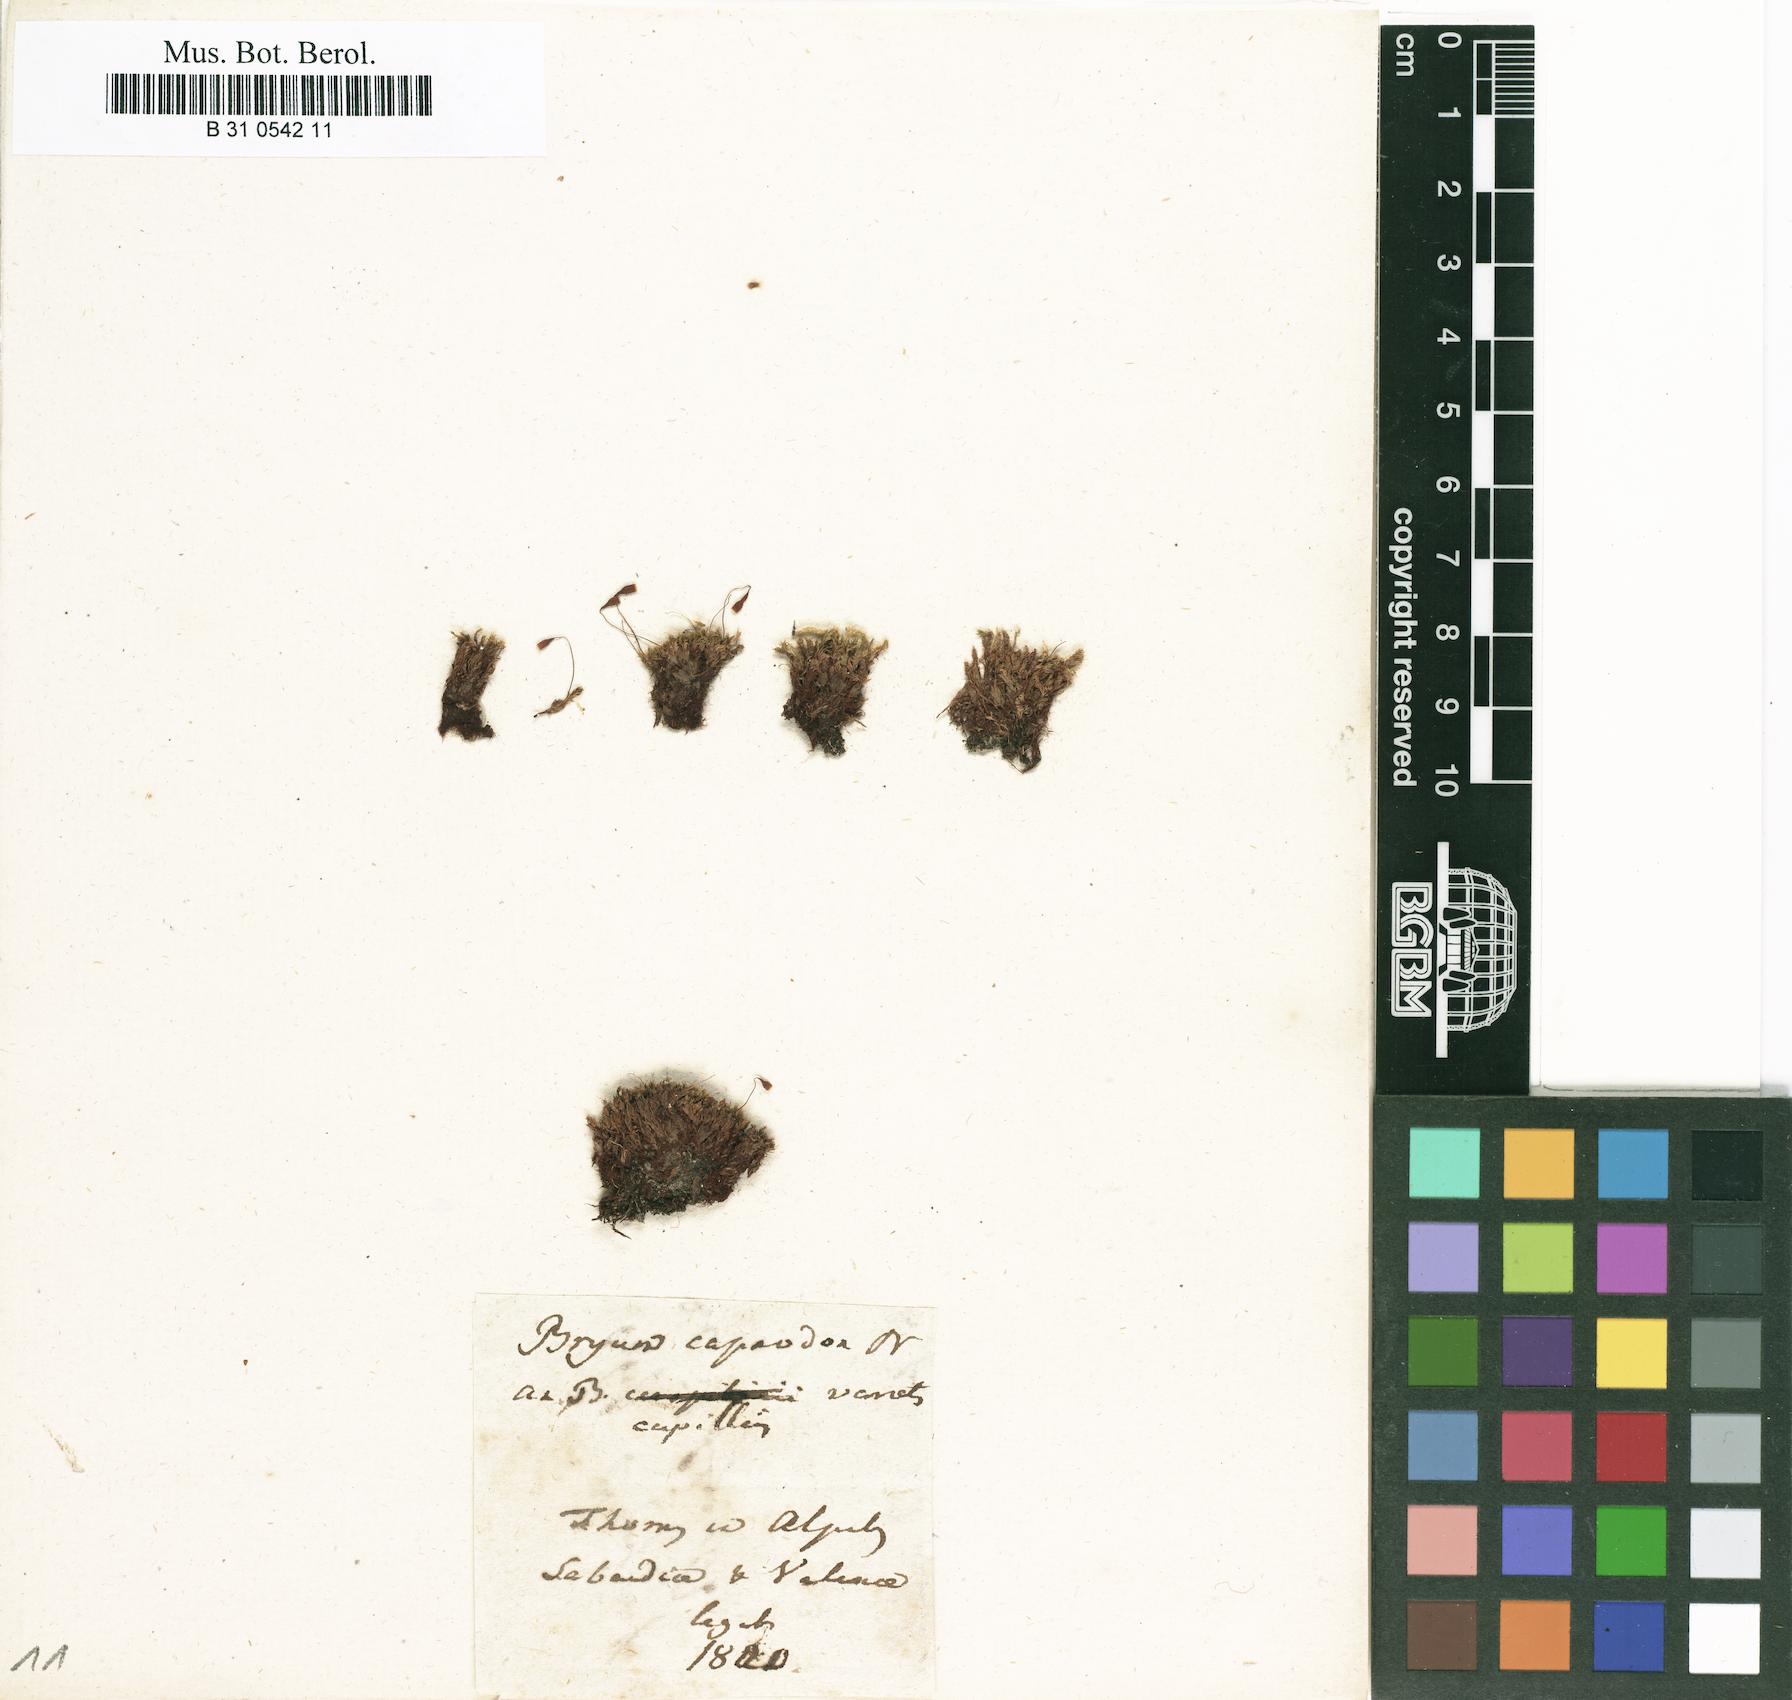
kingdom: Plantae
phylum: Bryophyta
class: Bryopsida
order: Bryales
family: Bryaceae
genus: Rosulabryum
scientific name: Rosulabryum capillare
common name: Capillary thread-moss
